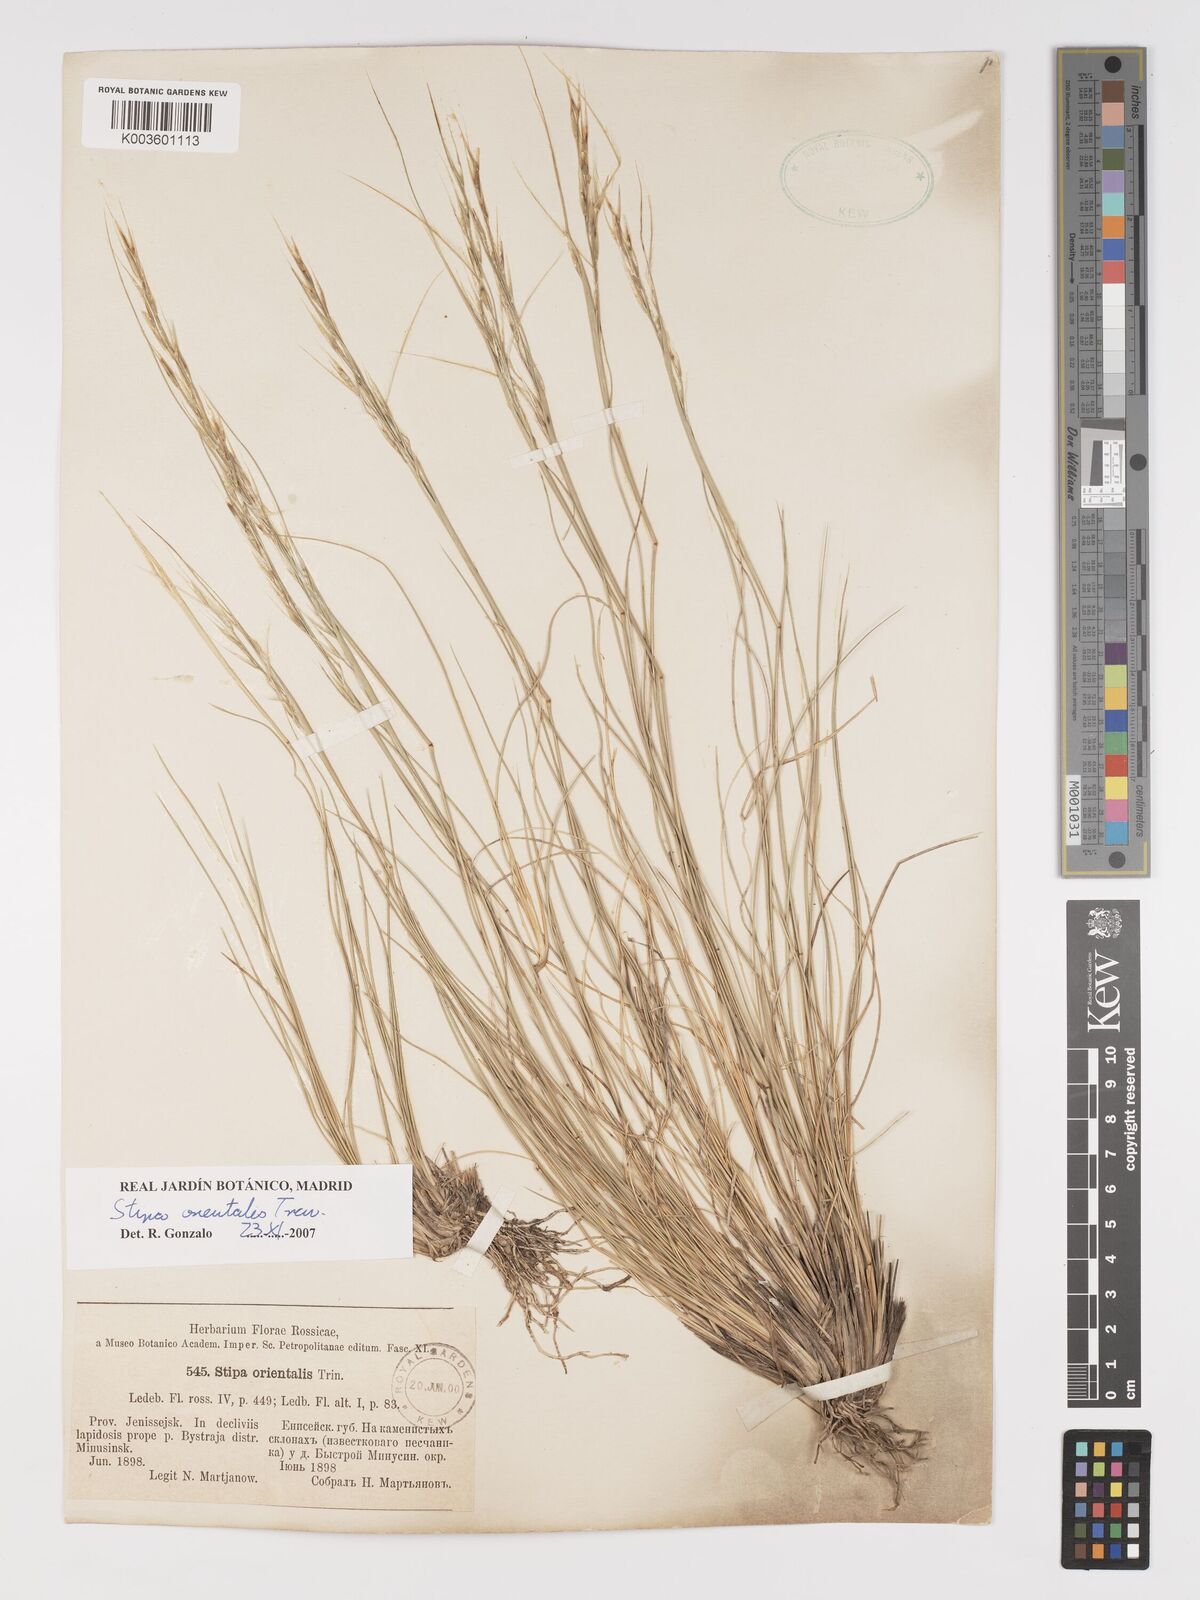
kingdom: Plantae
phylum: Tracheophyta
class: Liliopsida
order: Poales
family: Poaceae
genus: Stipa
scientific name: Stipa orientalis
